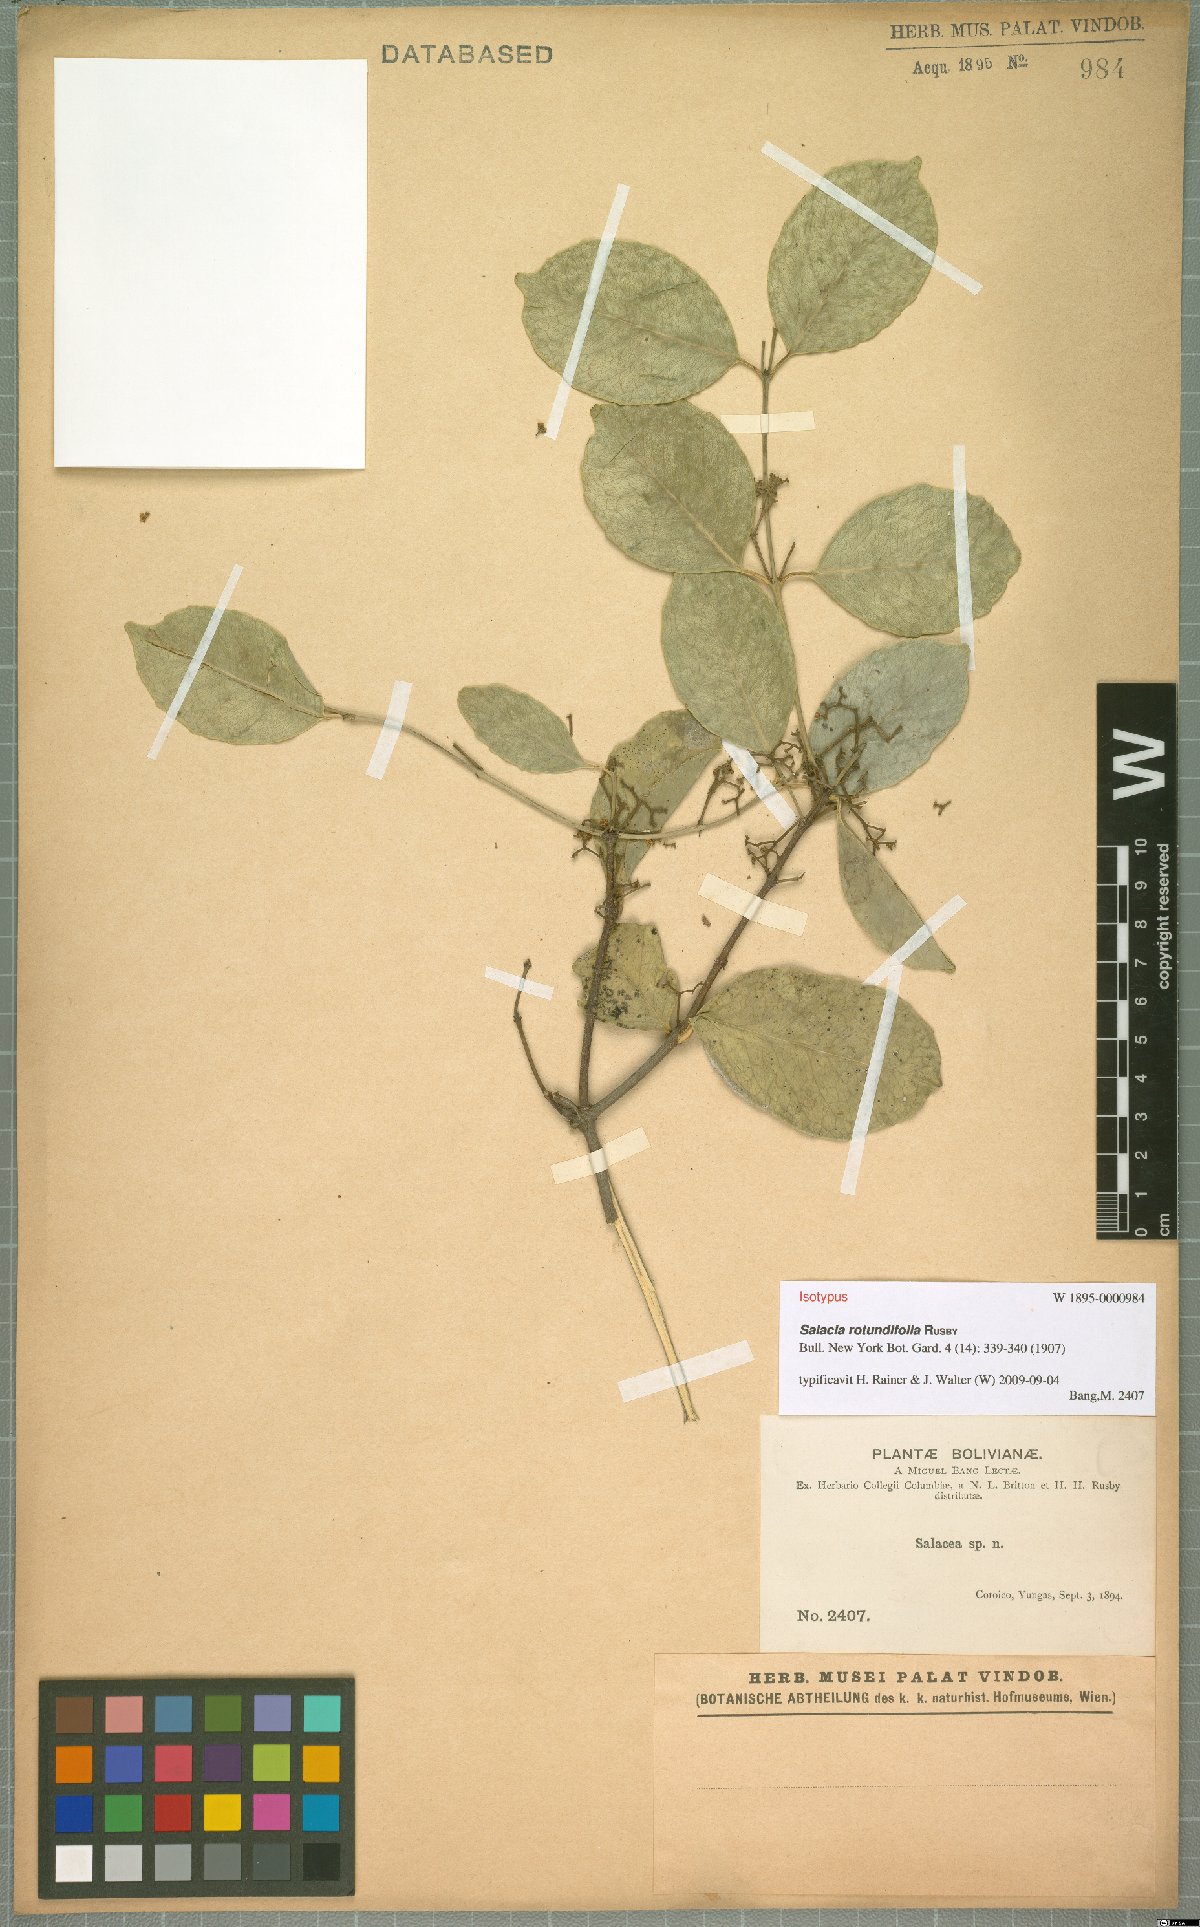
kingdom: Plantae
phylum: Tracheophyta
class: Magnoliopsida
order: Celastrales
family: Celastraceae
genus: Pristimera
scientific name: Pristimera celastroides
